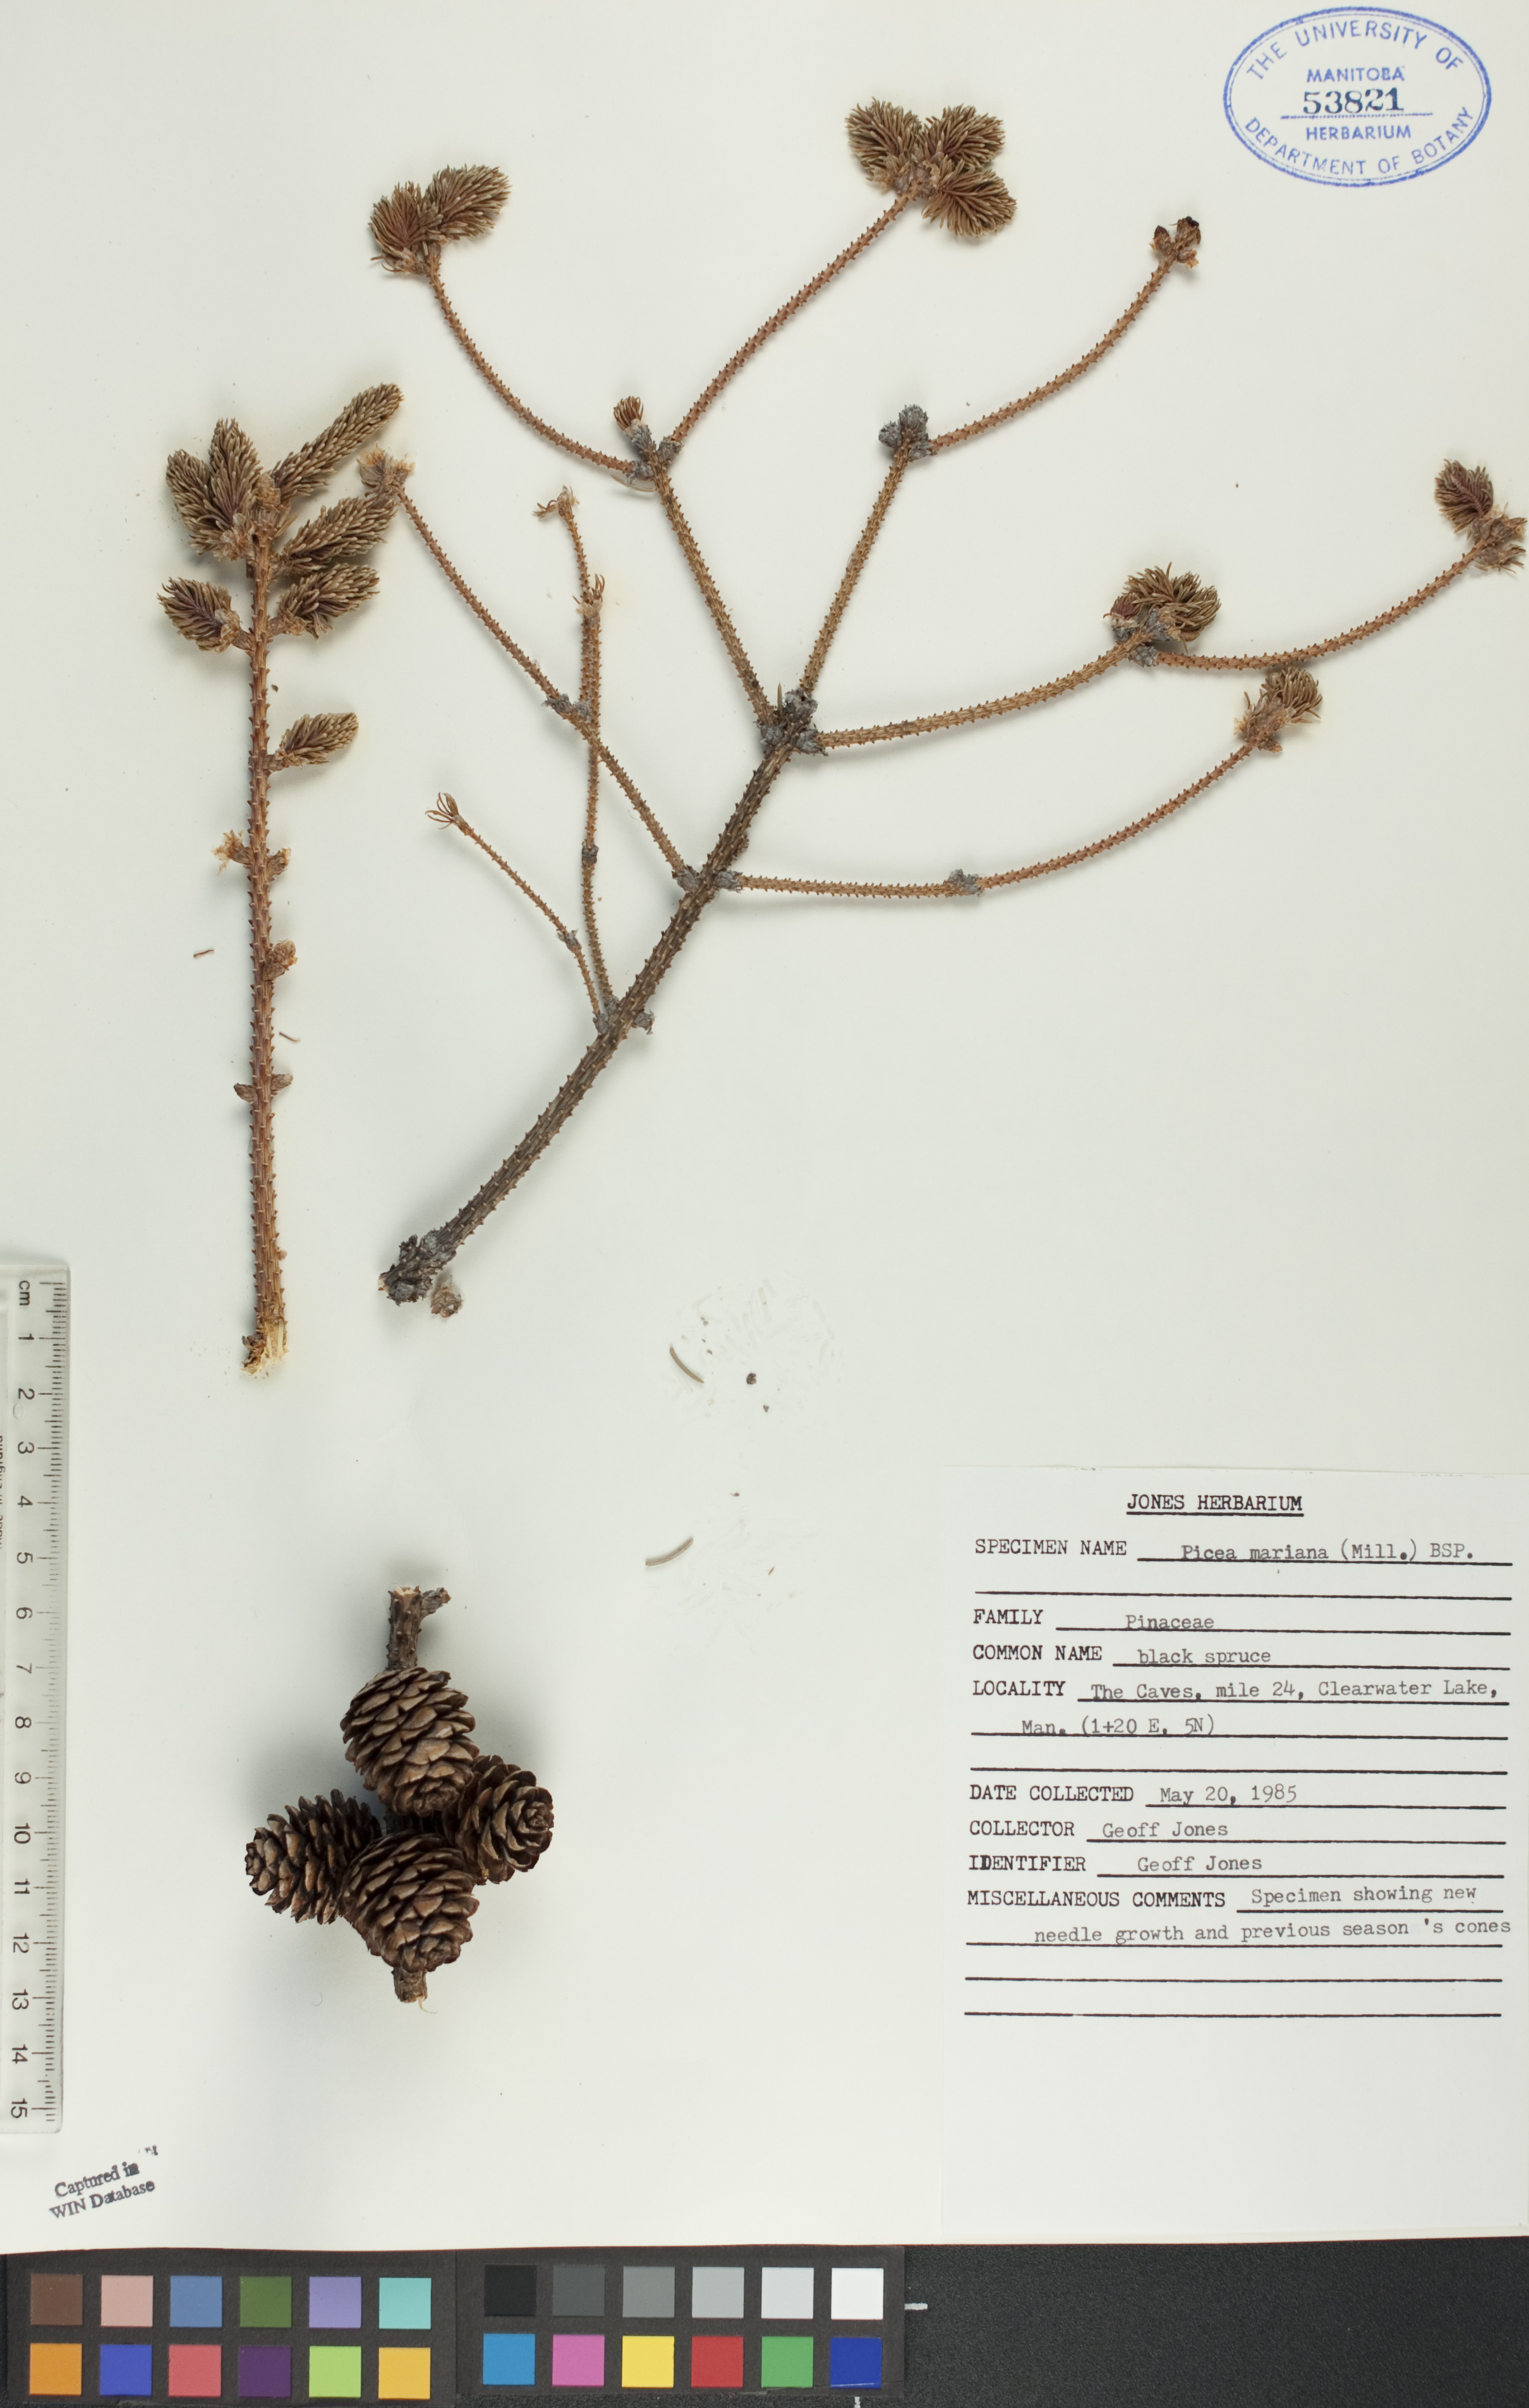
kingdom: Plantae
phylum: Tracheophyta
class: Pinopsida
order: Pinales
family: Pinaceae
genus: Picea
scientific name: Picea mariana
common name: Black spruce
